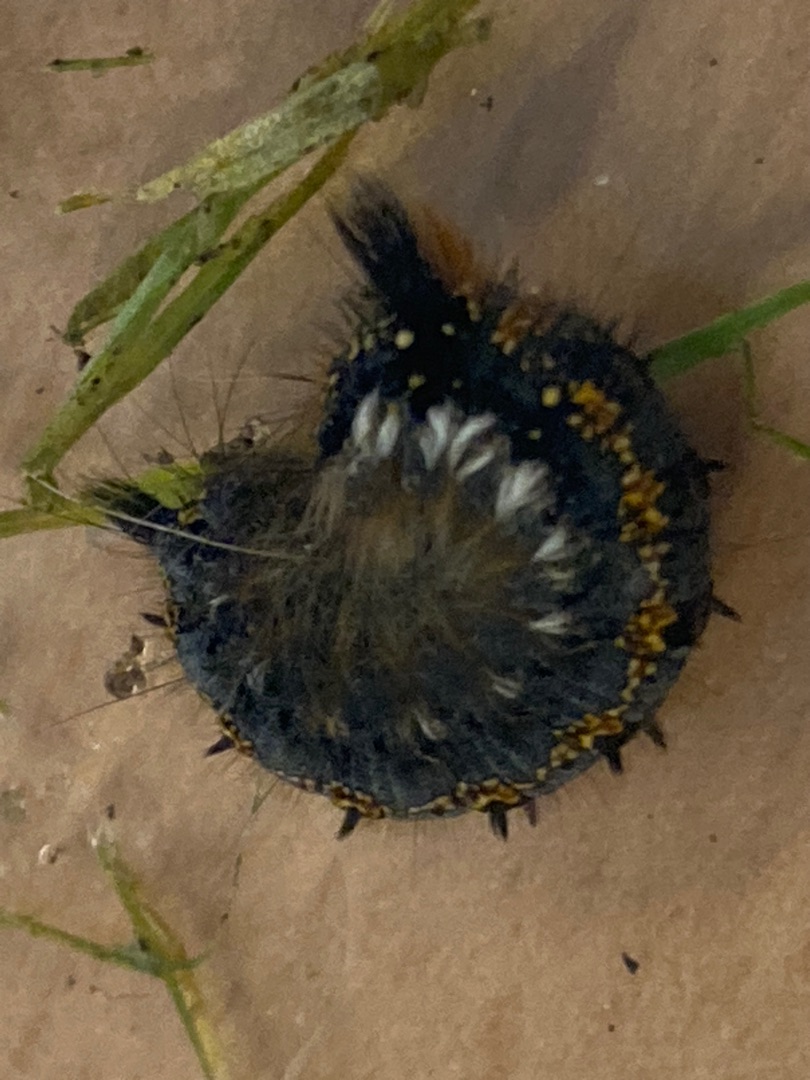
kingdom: Animalia
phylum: Arthropoda
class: Insecta
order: Lepidoptera
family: Lasiocampidae
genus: Euthrix
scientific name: Euthrix potatoria
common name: Græsspinder
